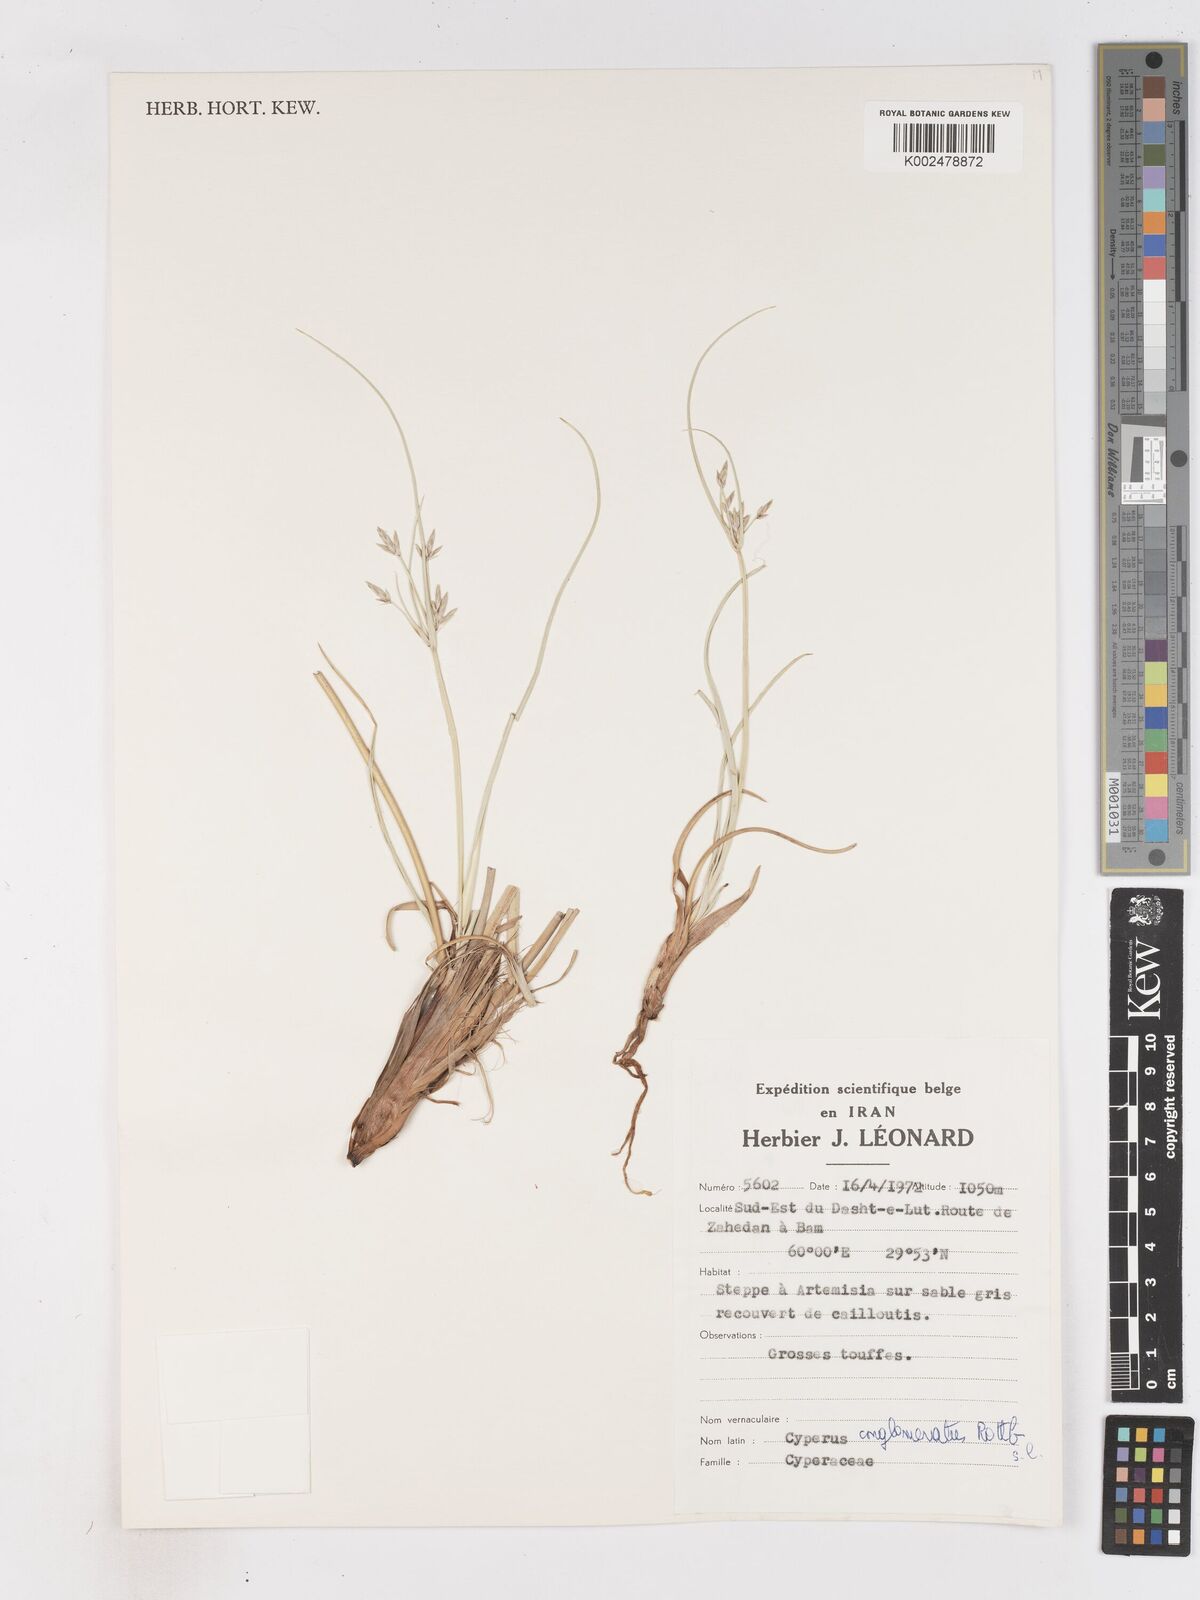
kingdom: Plantae
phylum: Tracheophyta
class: Liliopsida
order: Poales
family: Cyperaceae
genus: Cyperus
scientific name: Cyperus aucheri
